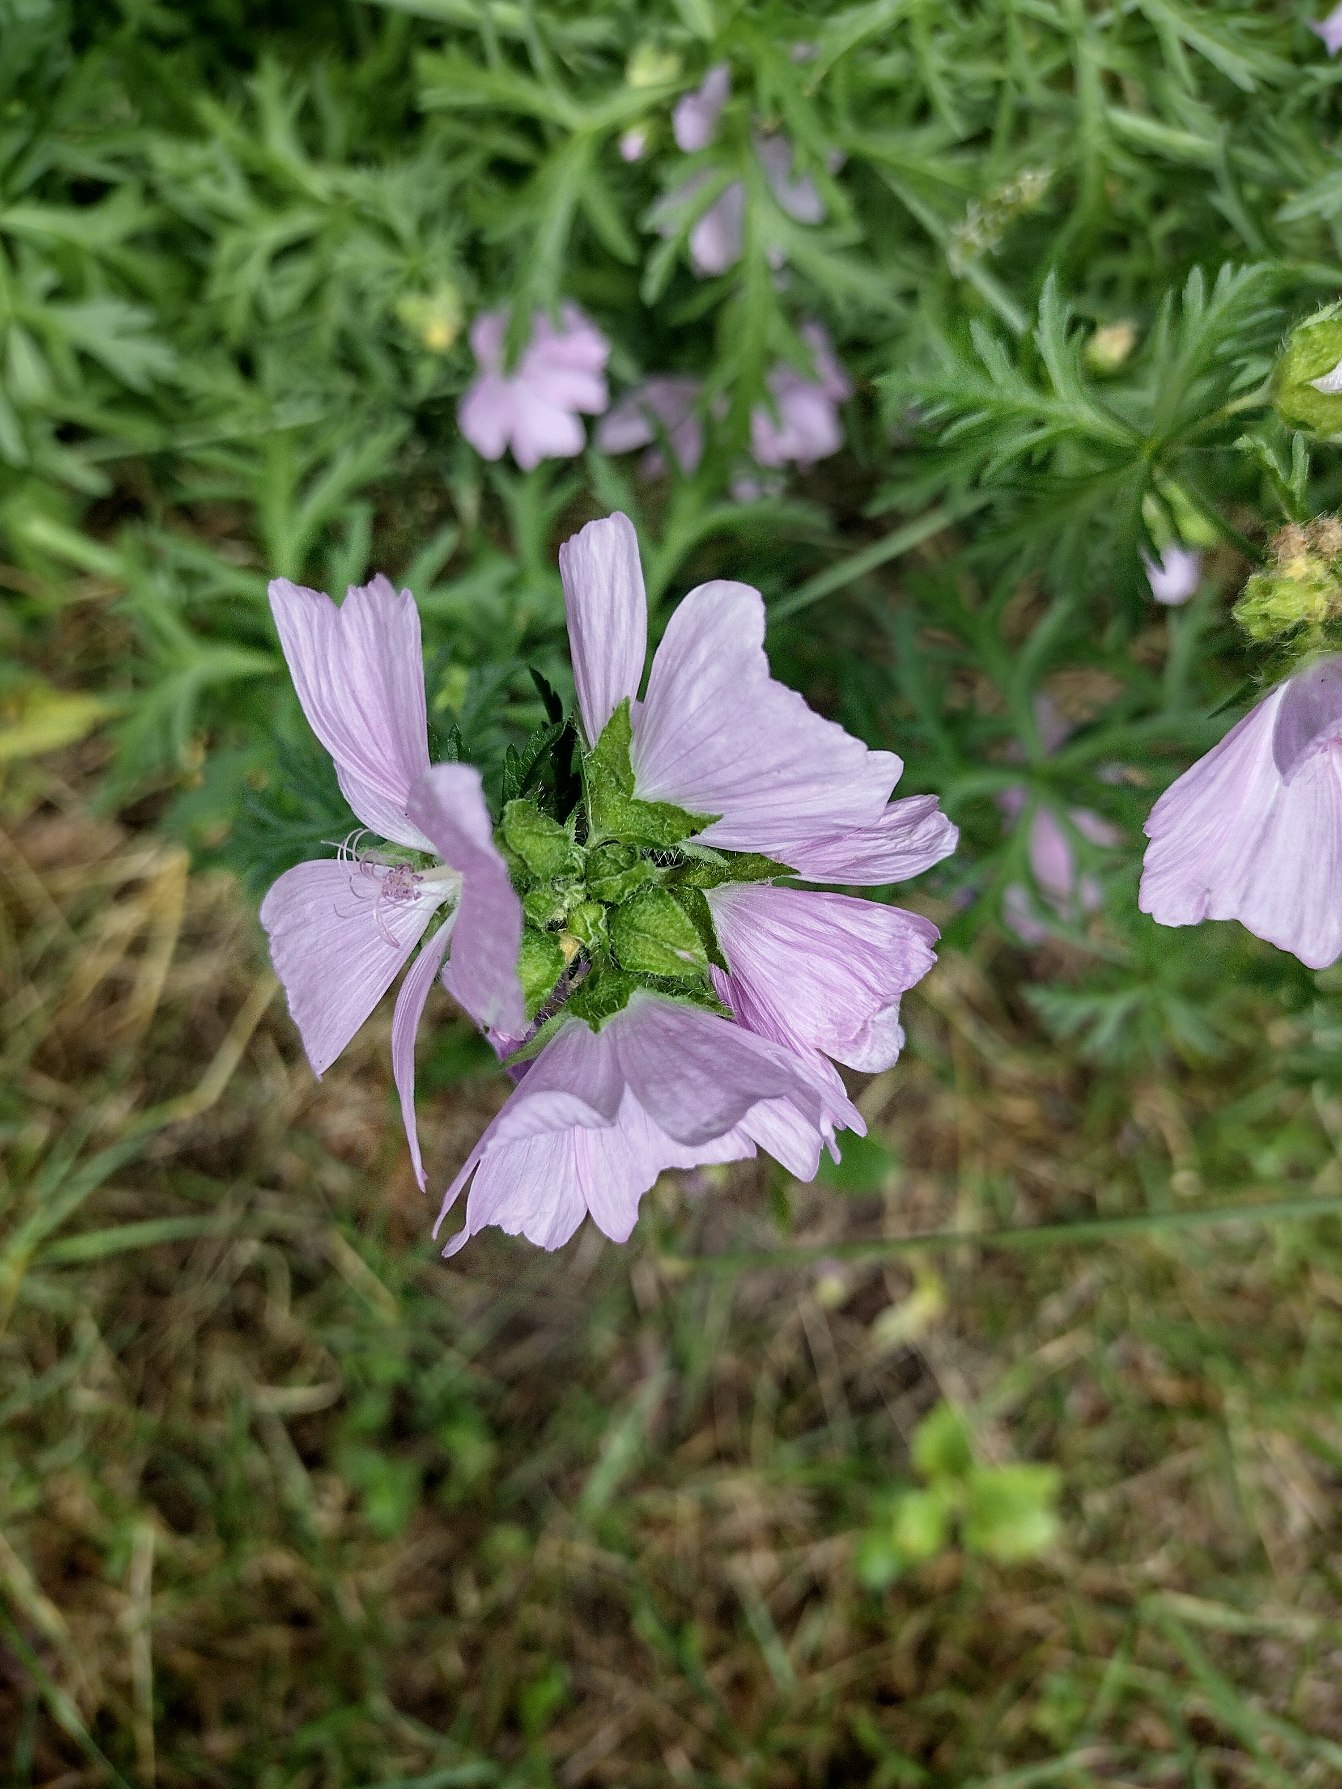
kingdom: Plantae
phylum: Tracheophyta
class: Magnoliopsida
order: Malvales
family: Malvaceae
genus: Malva
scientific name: Malva moschata
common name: Moskus-katost
